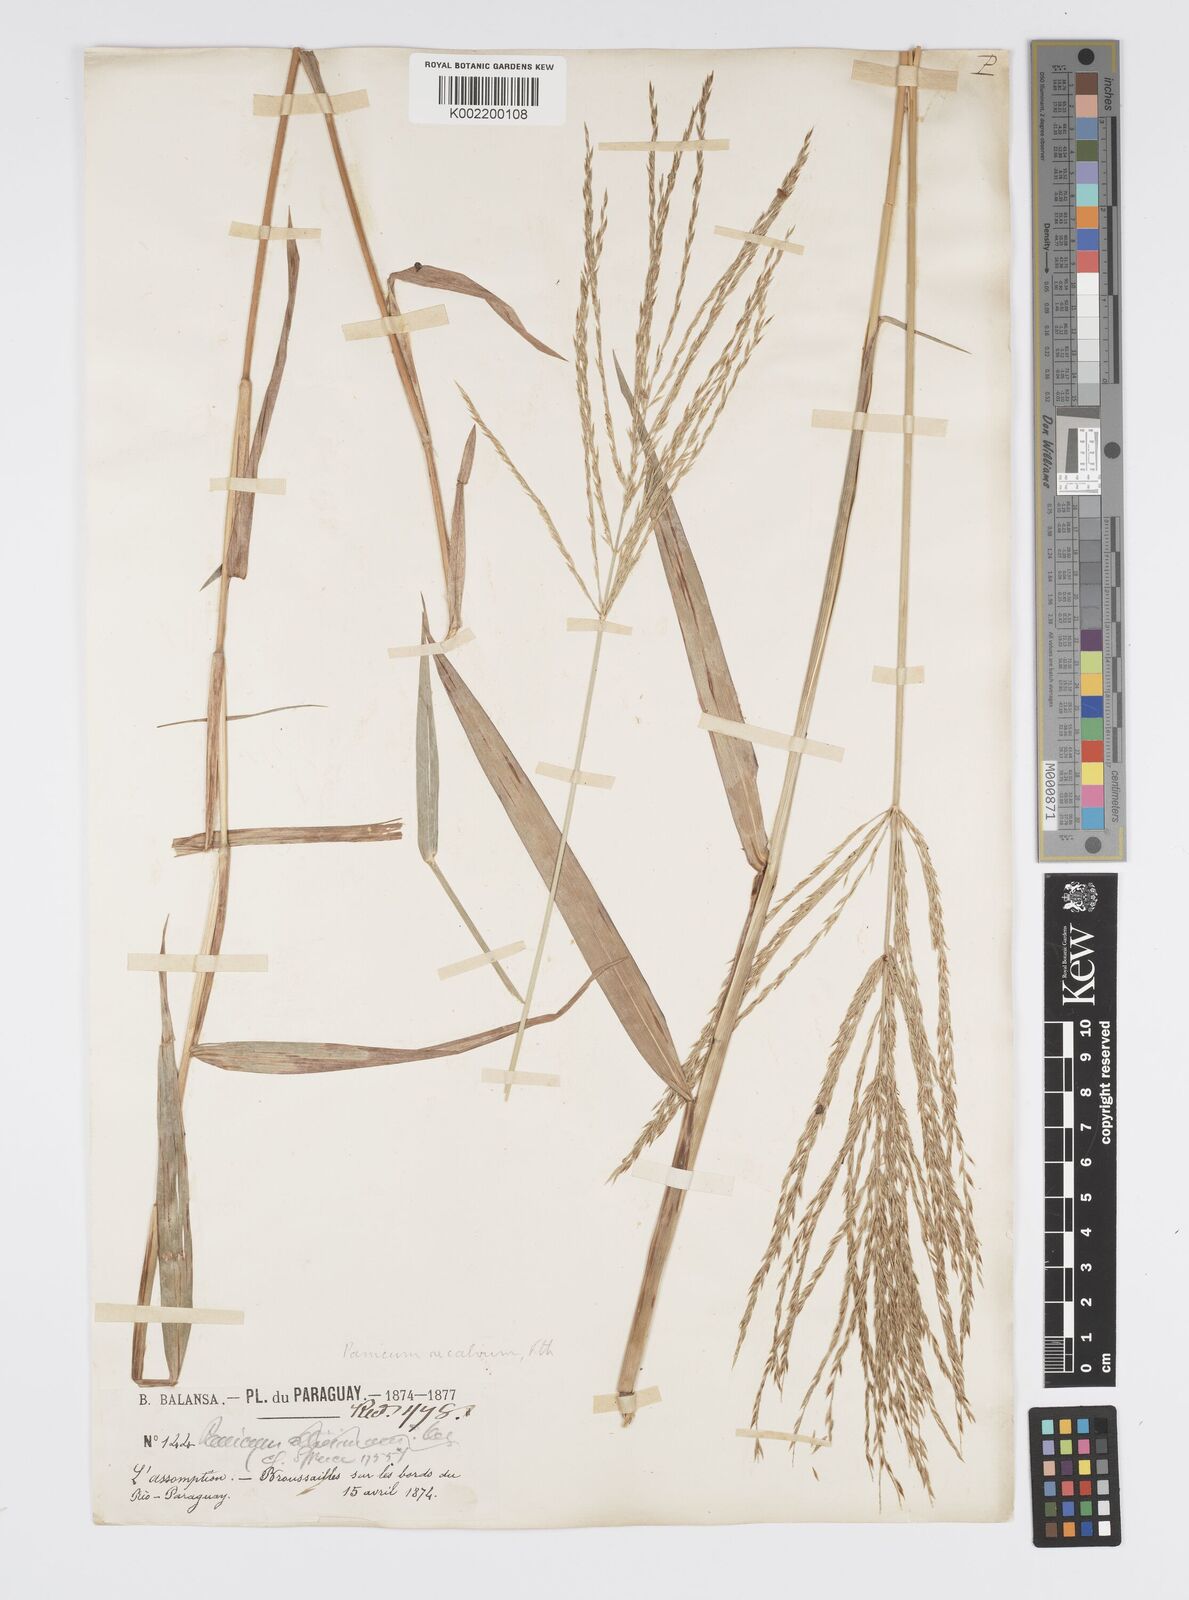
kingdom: Plantae
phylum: Tracheophyta
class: Liliopsida
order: Poales
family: Poaceae
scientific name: Poaceae
